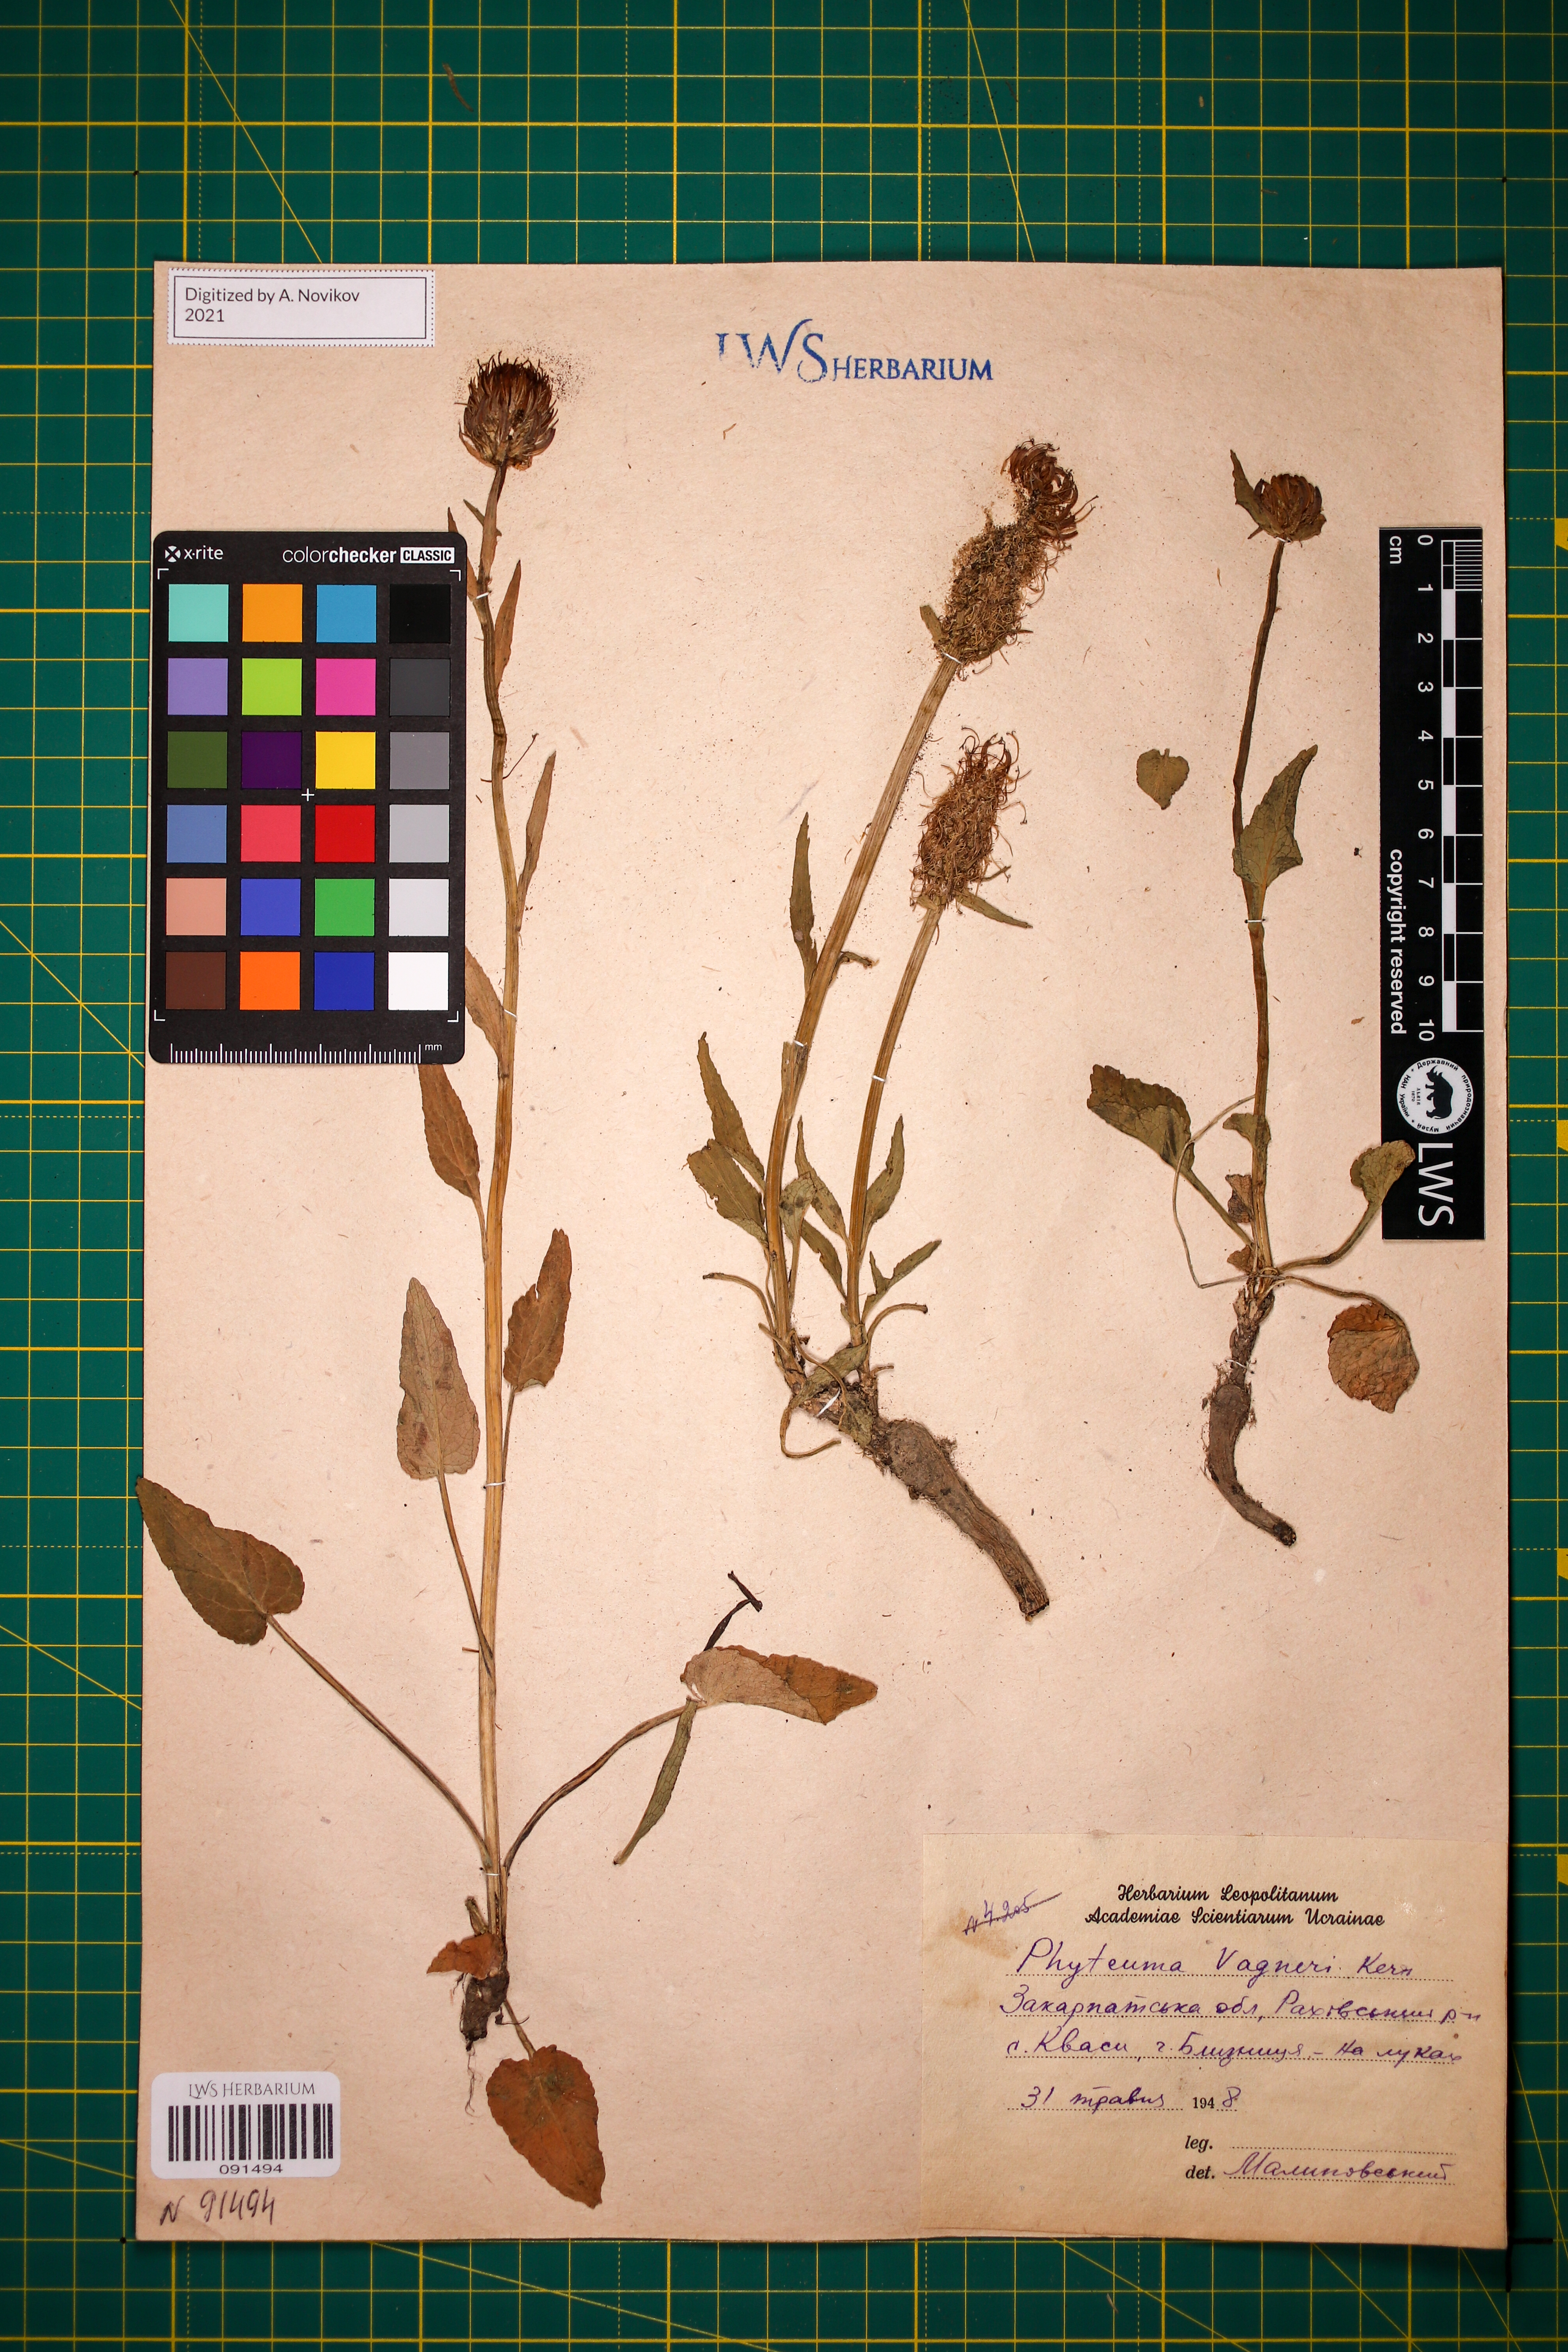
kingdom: Plantae
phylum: Tracheophyta
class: Magnoliopsida
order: Asterales
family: Campanulaceae
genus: Phyteuma
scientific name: Phyteuma vagneri
